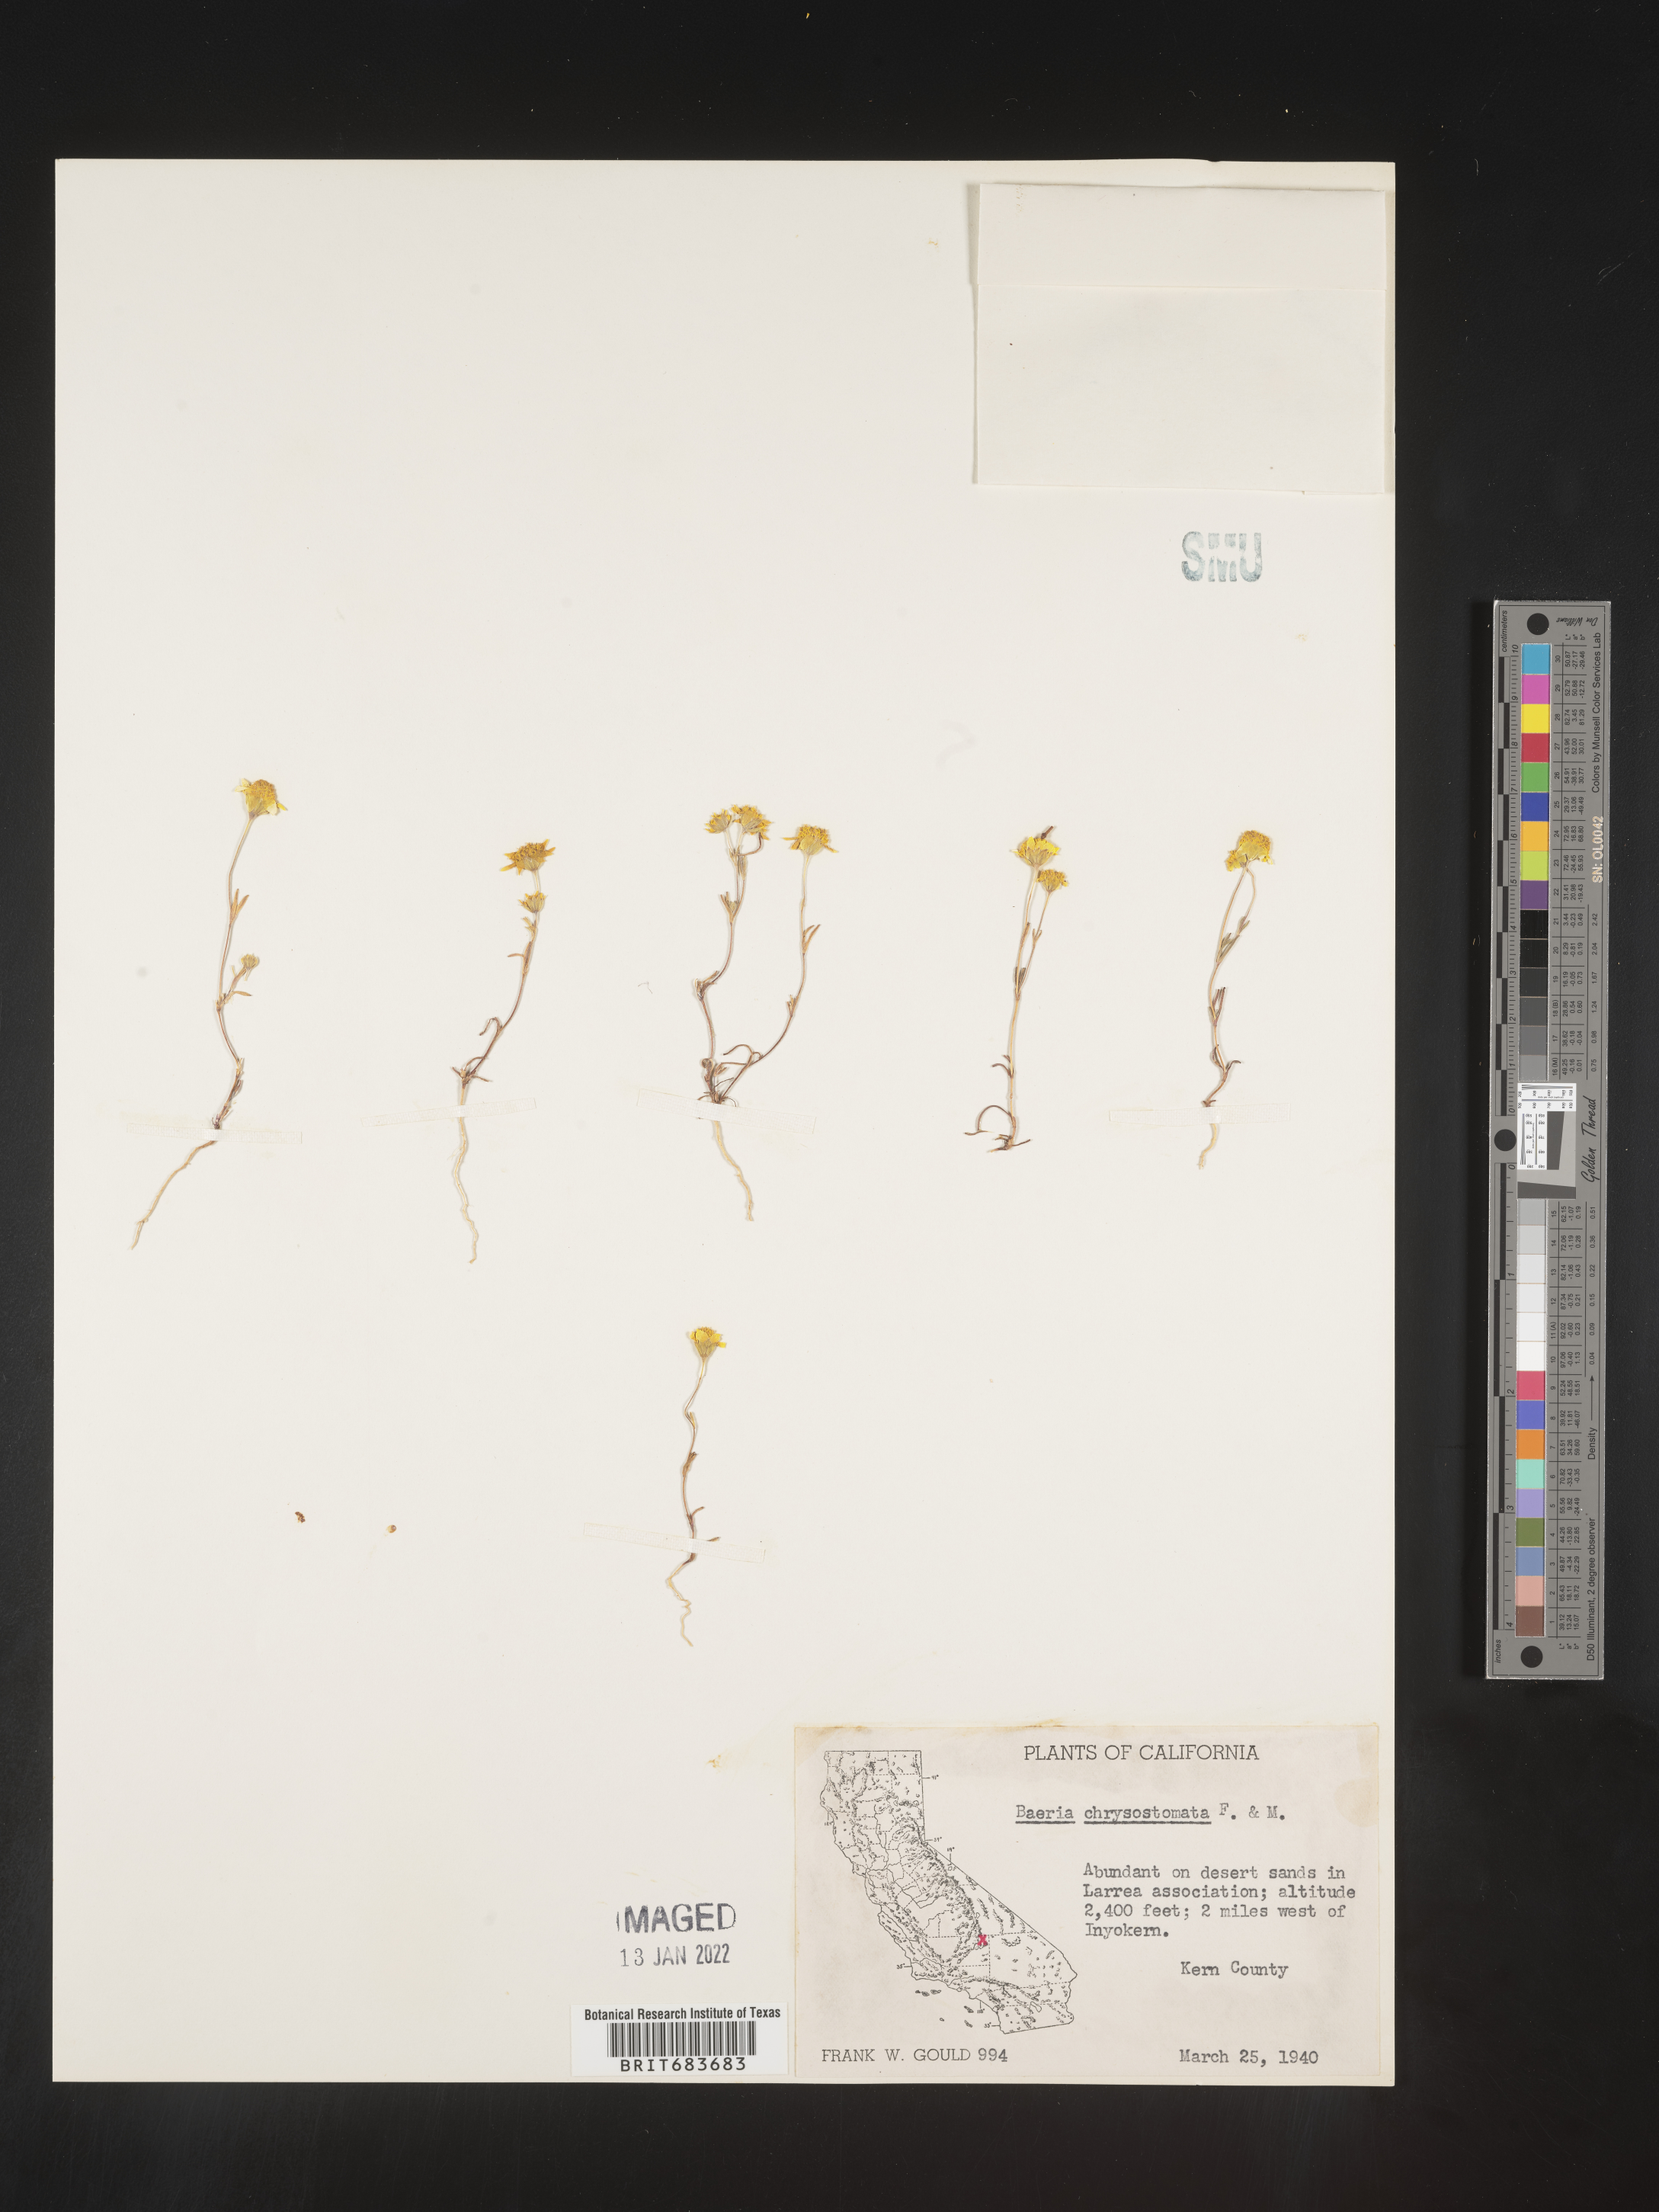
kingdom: Plantae
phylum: Tracheophyta
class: Magnoliopsida
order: Asterales
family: Asteraceae
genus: Lasthenia
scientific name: Lasthenia
